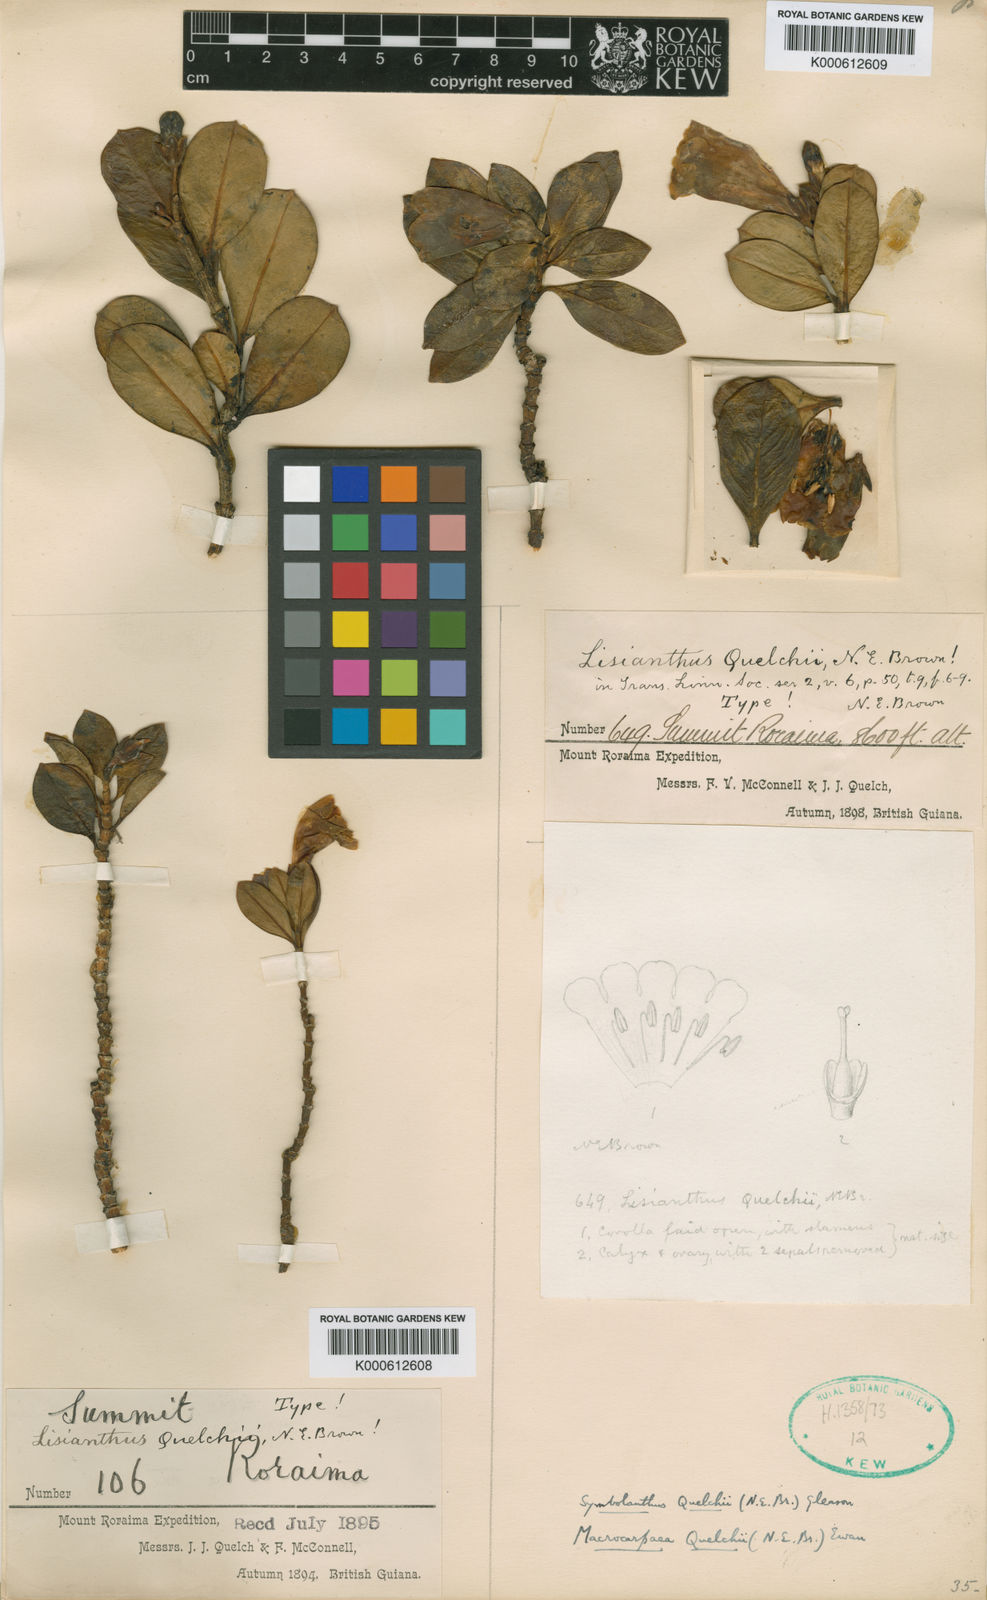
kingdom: Plantae
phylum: Tracheophyta
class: Magnoliopsida
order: Gentianales
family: Gentianaceae
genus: Rogersonanthus
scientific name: Rogersonanthus quelchii
